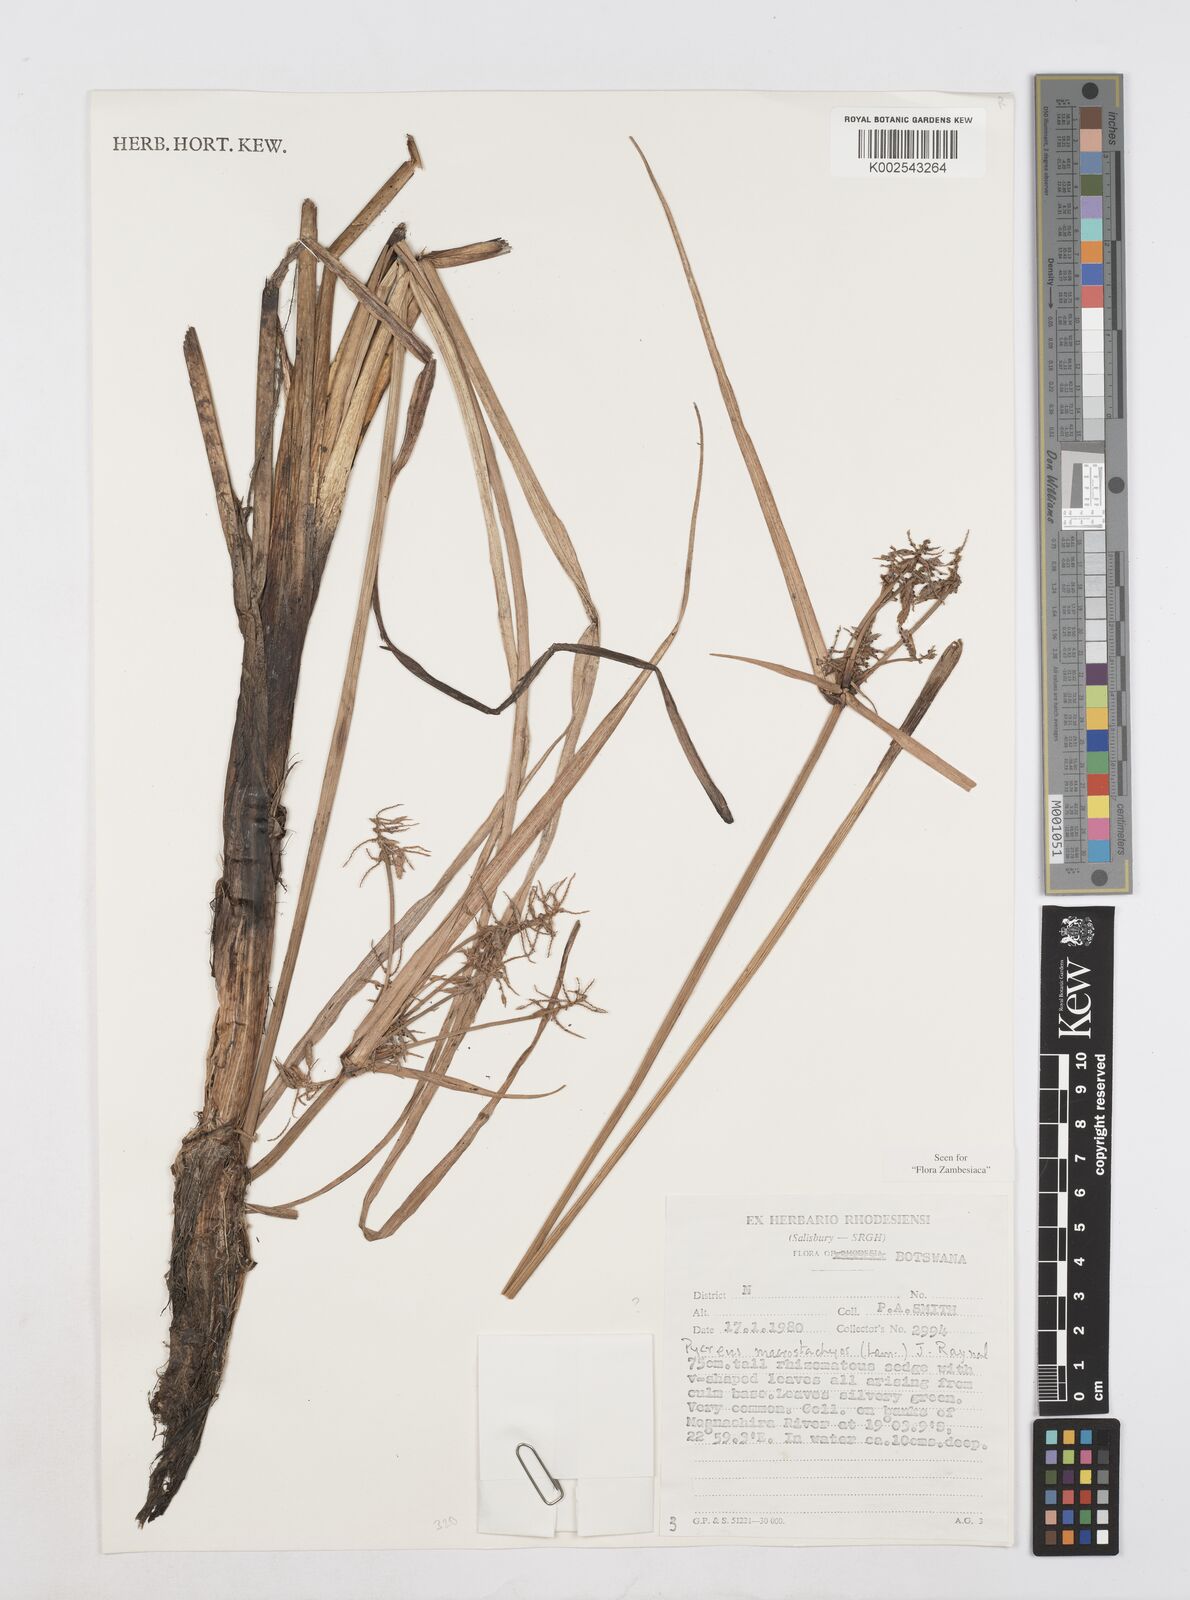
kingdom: Plantae
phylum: Tracheophyta
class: Liliopsida
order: Poales
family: Cyperaceae
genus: Cyperus
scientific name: Cyperus macrostachyos
